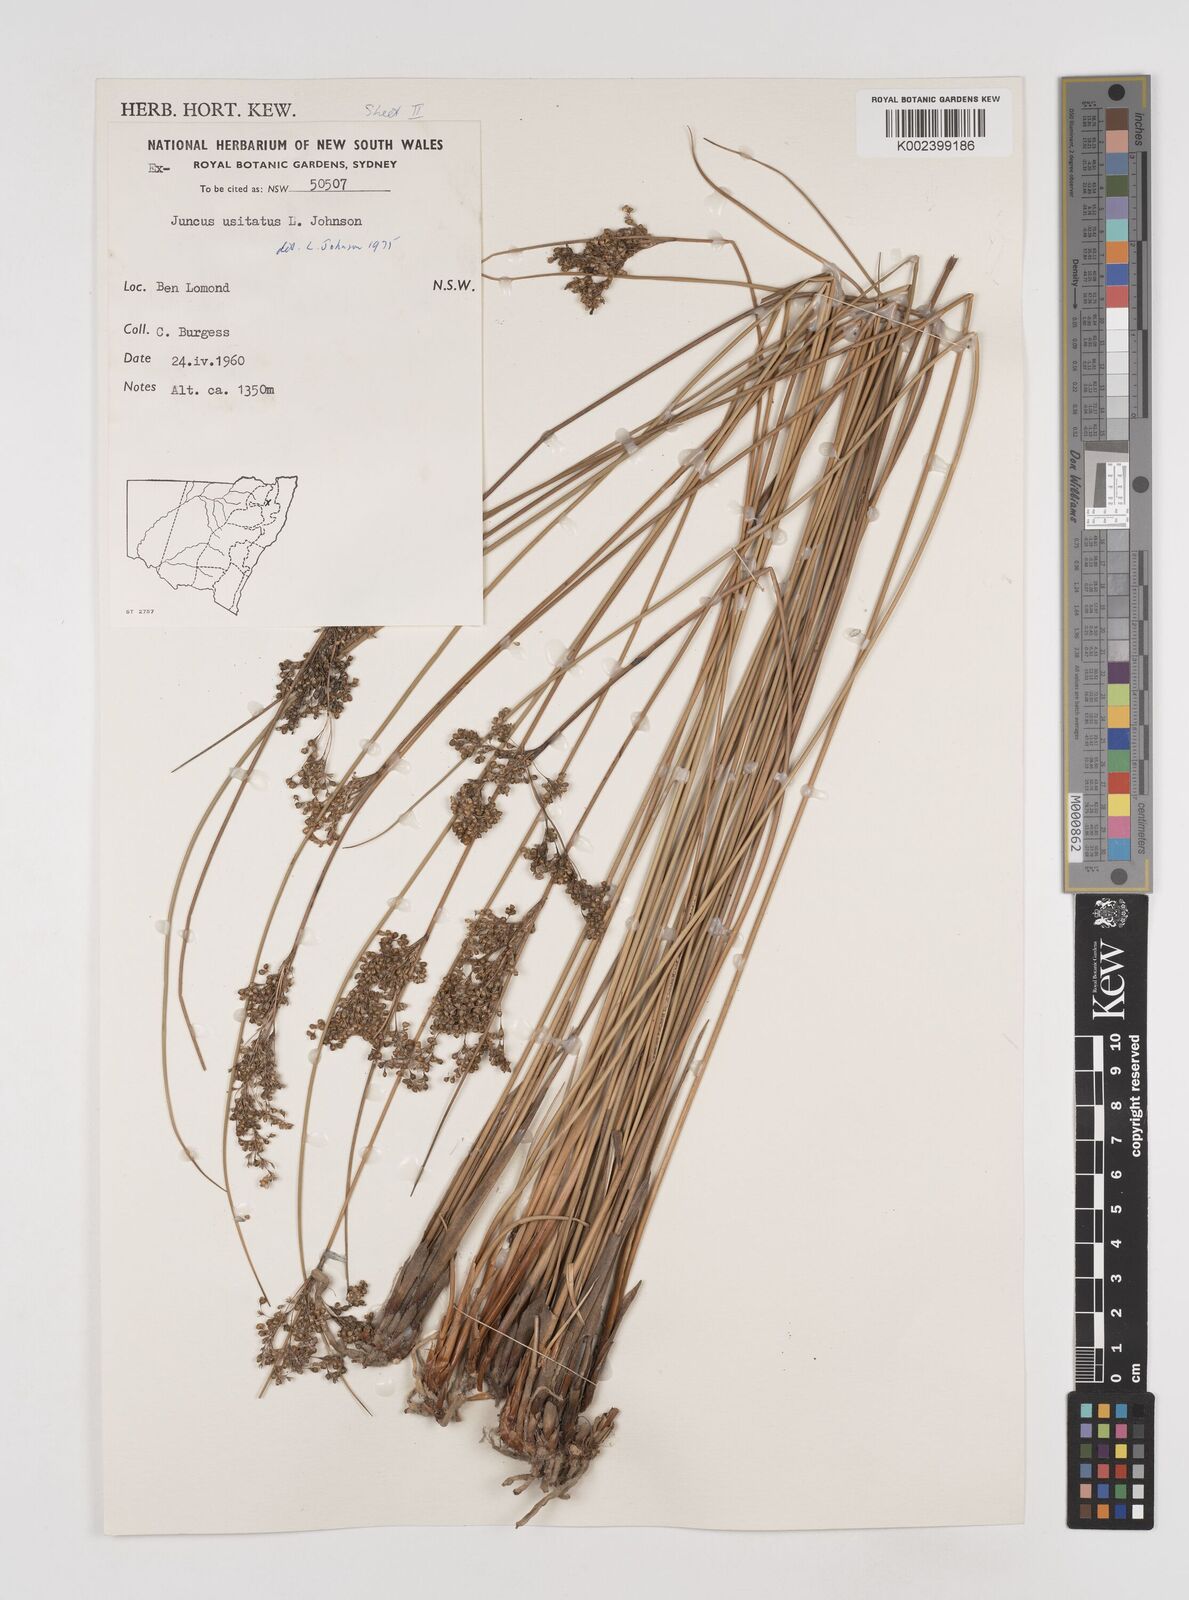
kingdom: Plantae
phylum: Tracheophyta
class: Liliopsida
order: Poales
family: Juncaceae
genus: Juncus
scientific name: Juncus usitatus
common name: Rush
